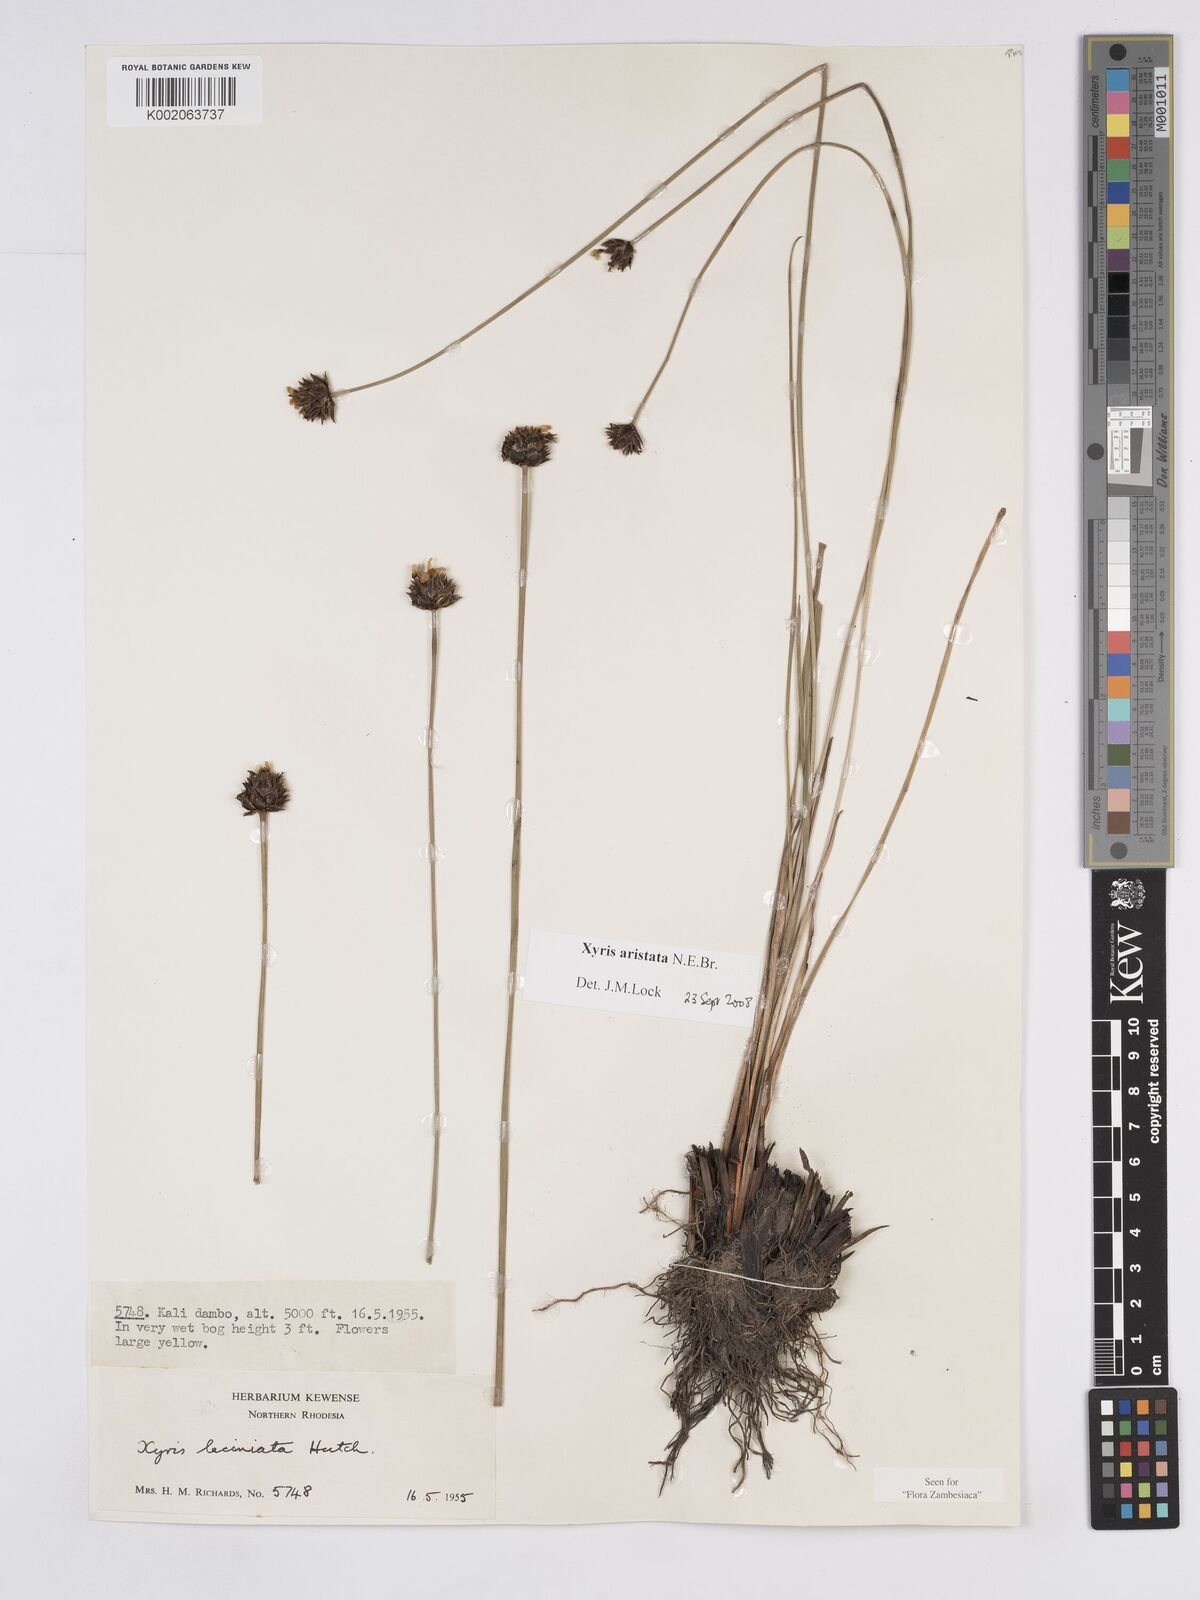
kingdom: Plantae
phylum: Tracheophyta
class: Liliopsida
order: Poales
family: Xyridaceae
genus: Xyris
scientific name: Xyris aristata
